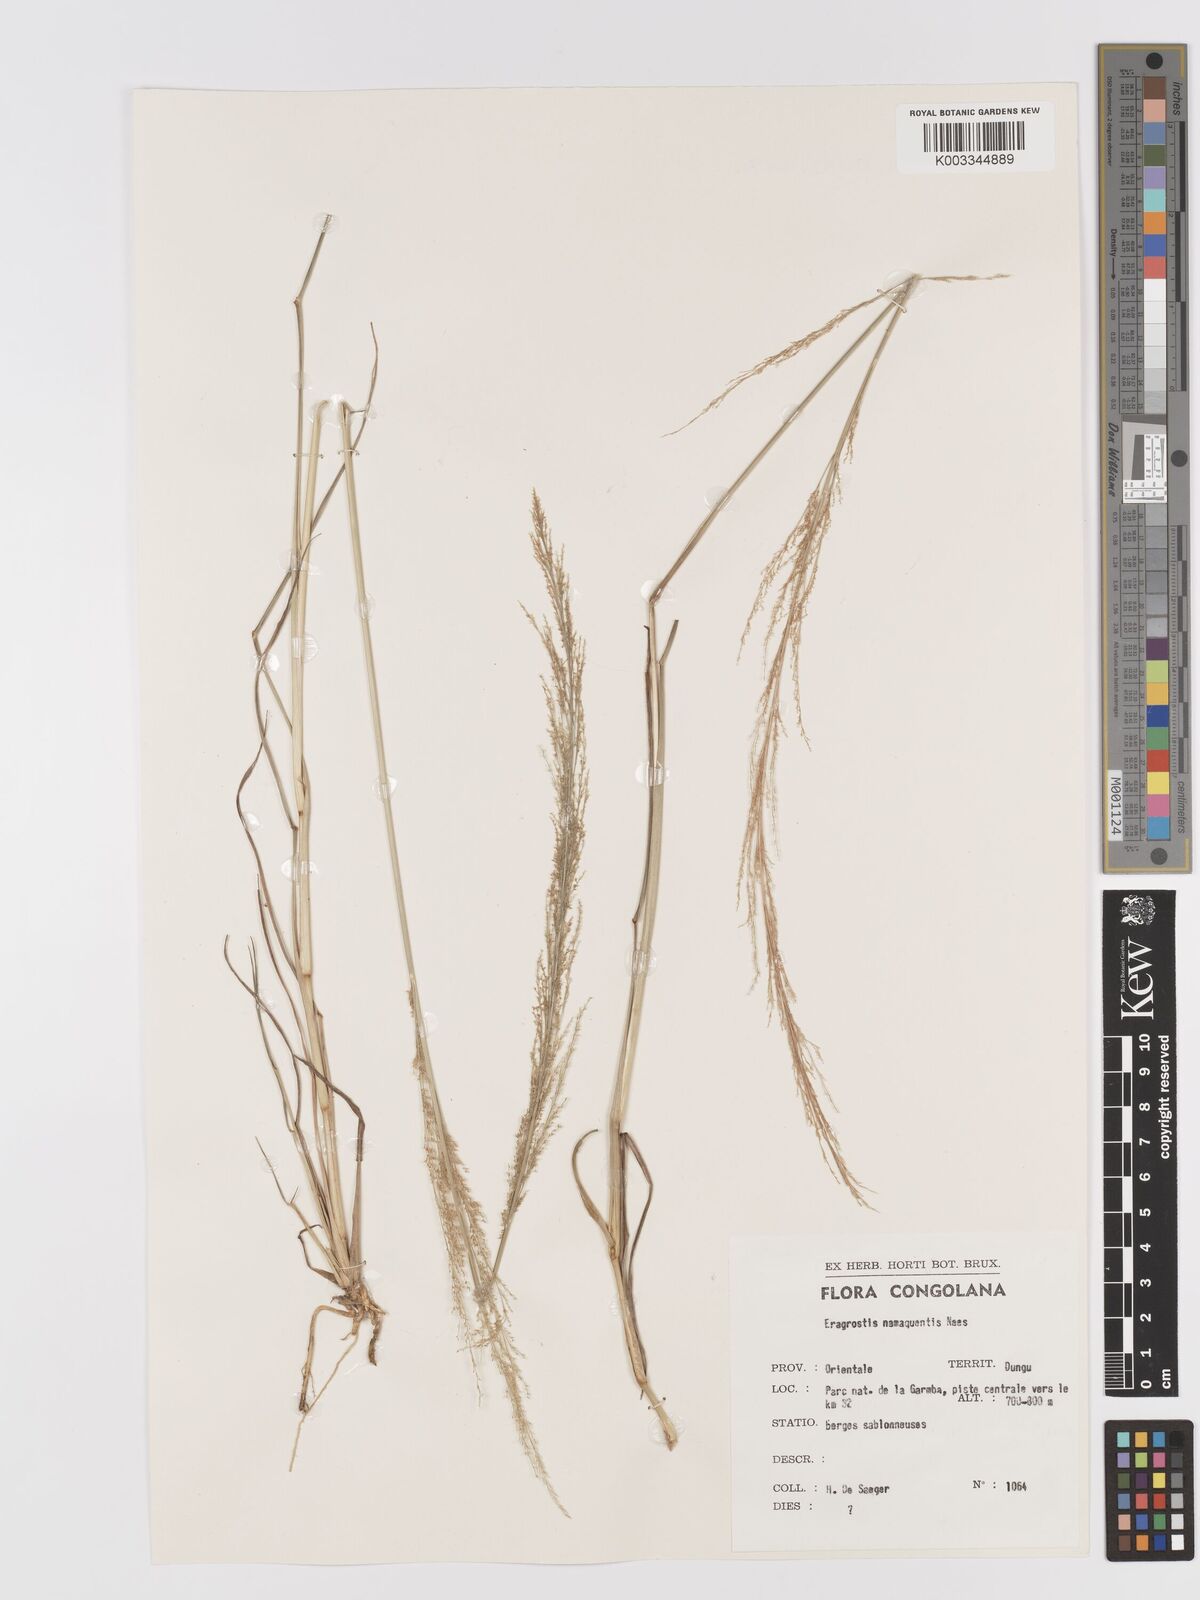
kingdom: Plantae
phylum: Tracheophyta
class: Liliopsida
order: Poales
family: Poaceae
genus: Eragrostis
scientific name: Eragrostis japonica
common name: Pond lovegrass
